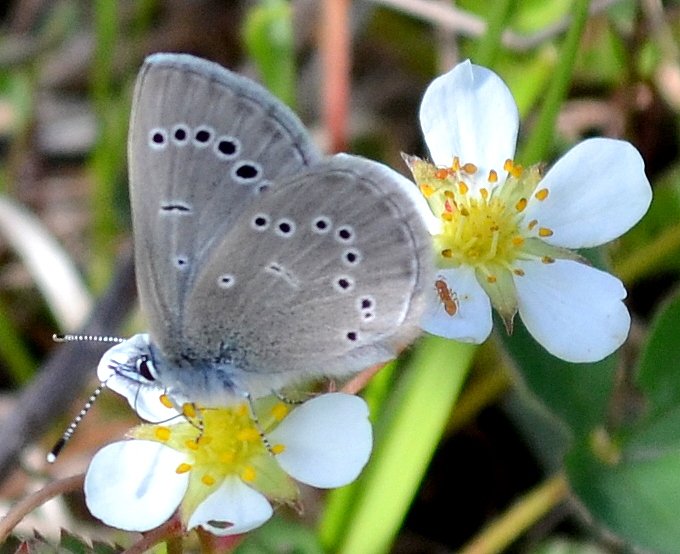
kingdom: Animalia
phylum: Arthropoda
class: Insecta
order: Lepidoptera
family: Lycaenidae
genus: Glaucopsyche
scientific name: Glaucopsyche lygdamus
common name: Silvery Blue
